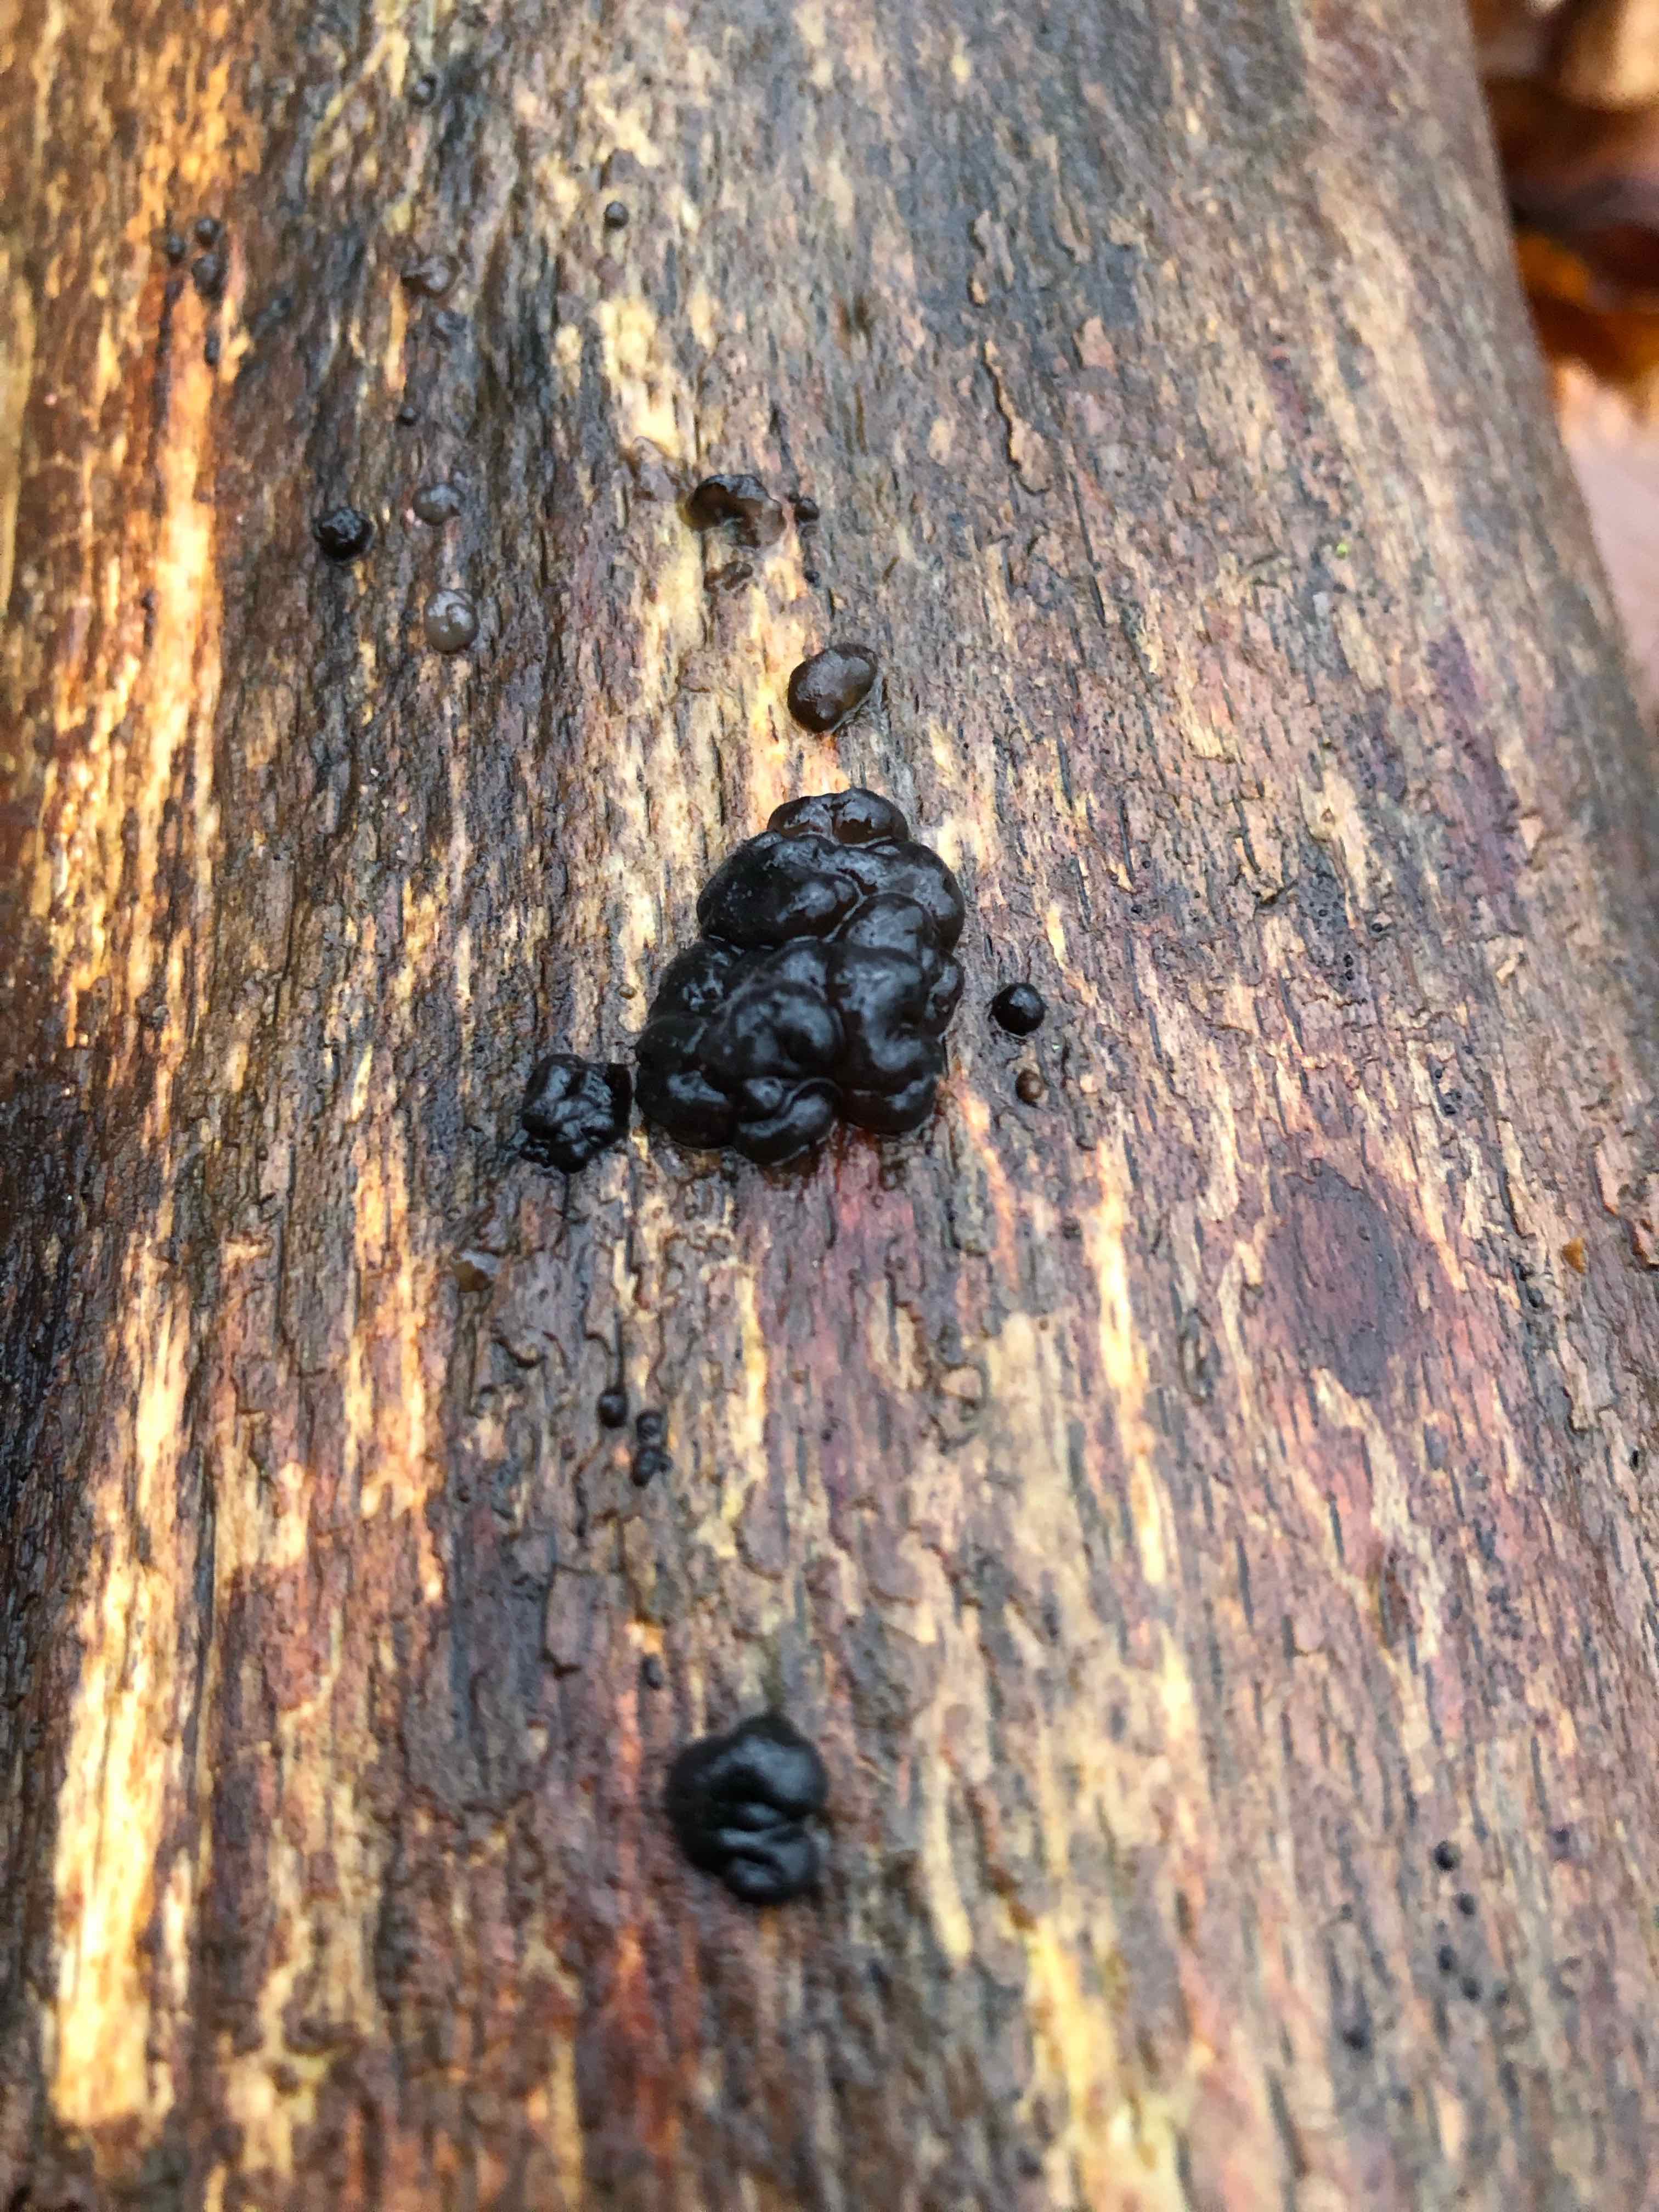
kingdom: Fungi
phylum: Basidiomycota
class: Agaricomycetes
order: Auriculariales
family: Auriculariaceae
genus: Exidia
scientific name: Exidia nigricans
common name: almindelig bævretop
